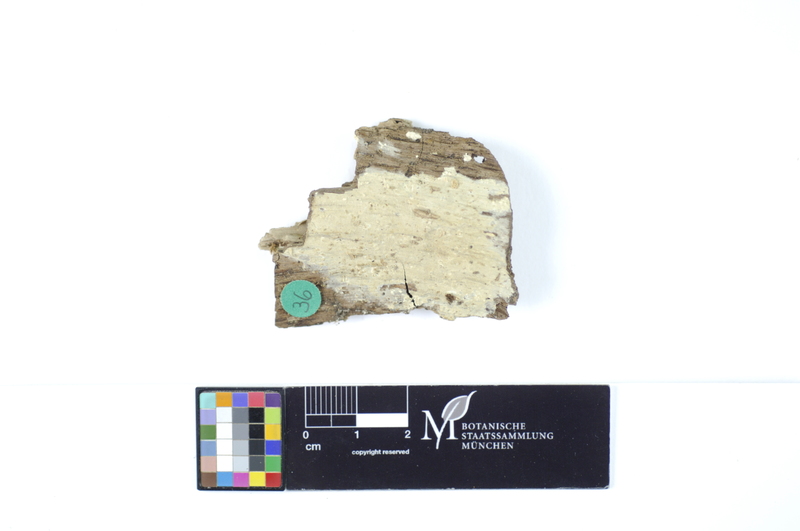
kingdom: Plantae
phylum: Tracheophyta
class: Magnoliopsida
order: Fagales
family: Fagaceae
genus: Quercus
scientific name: Quercus
